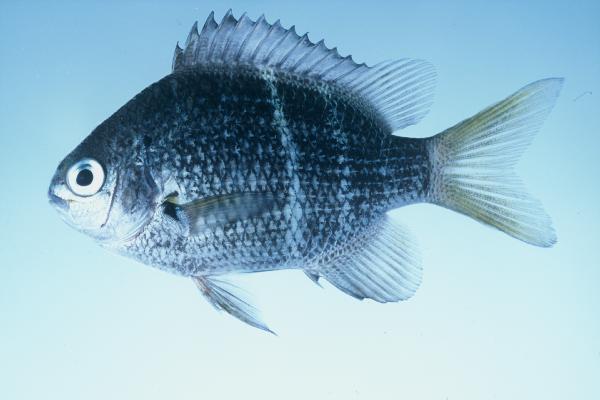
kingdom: Animalia
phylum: Chordata
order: Perciformes
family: Pomacentridae
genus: Abudefduf
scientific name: Abudefduf notatus
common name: Yellow-tail sergeant
